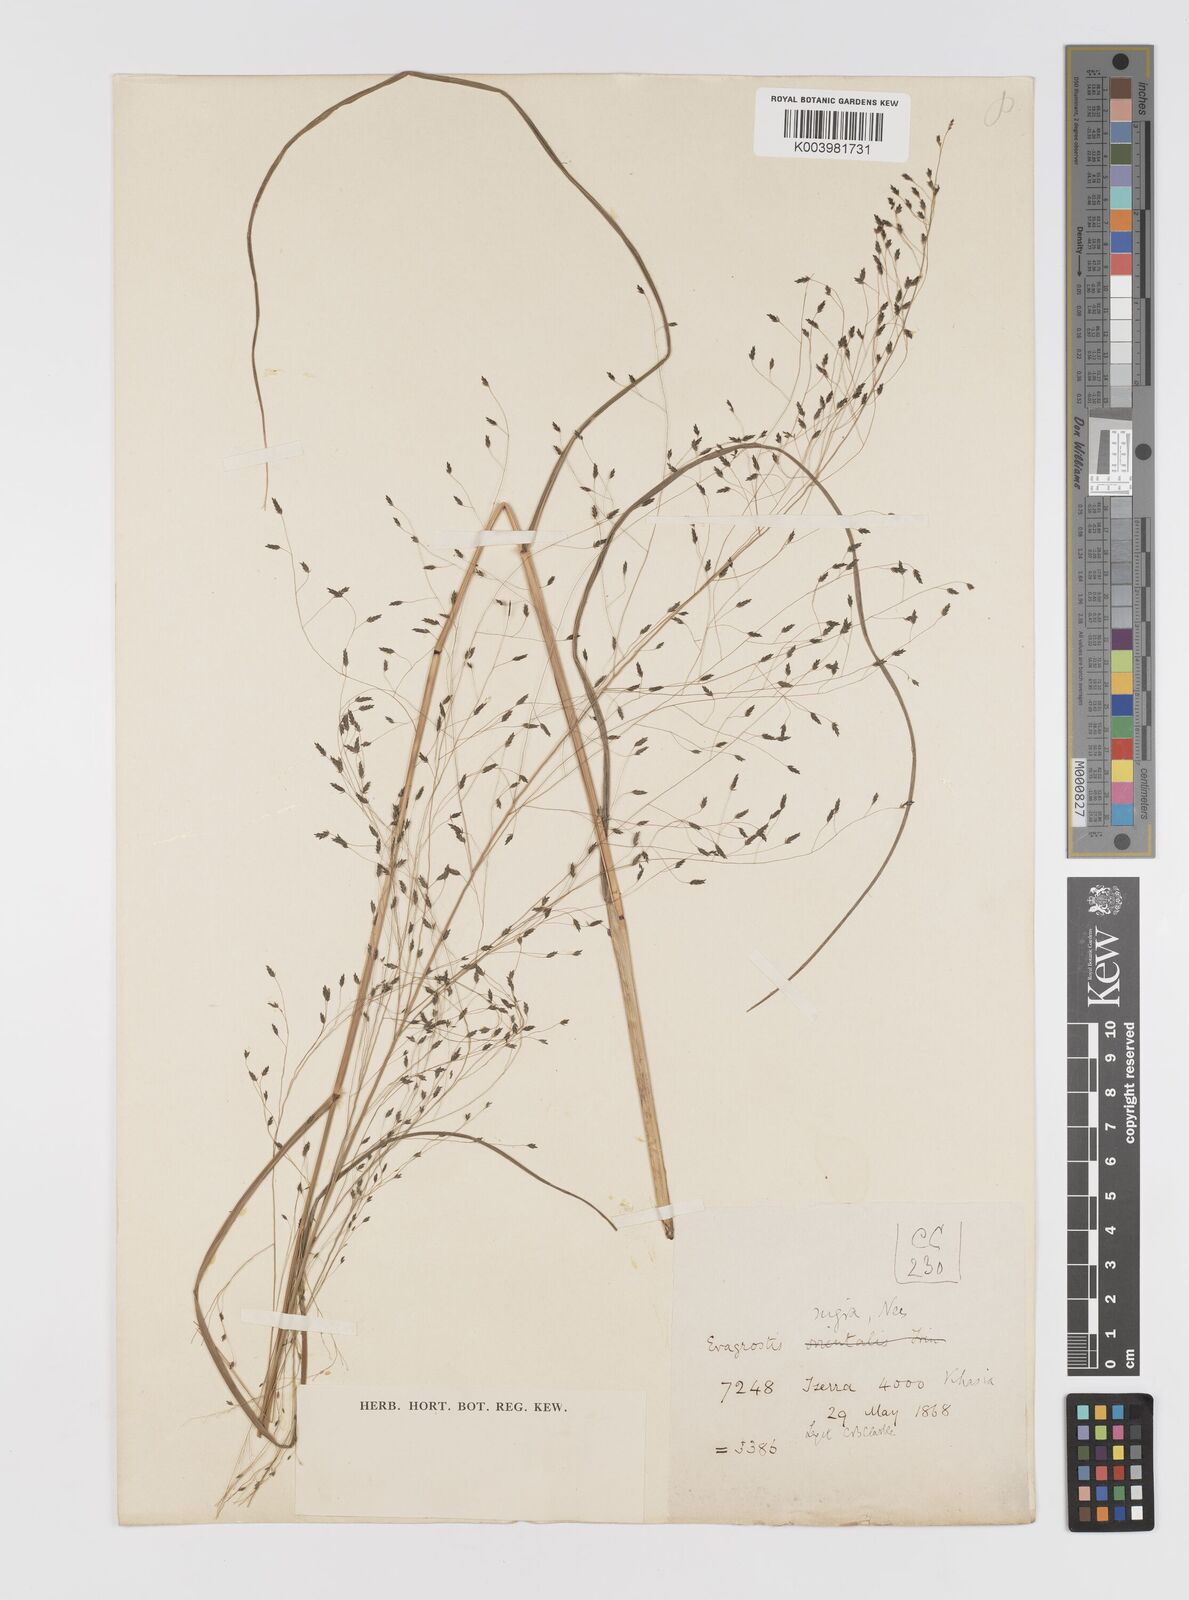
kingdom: Plantae
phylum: Tracheophyta
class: Liliopsida
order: Poales
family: Poaceae
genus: Eragrostis
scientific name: Eragrostis nigra
